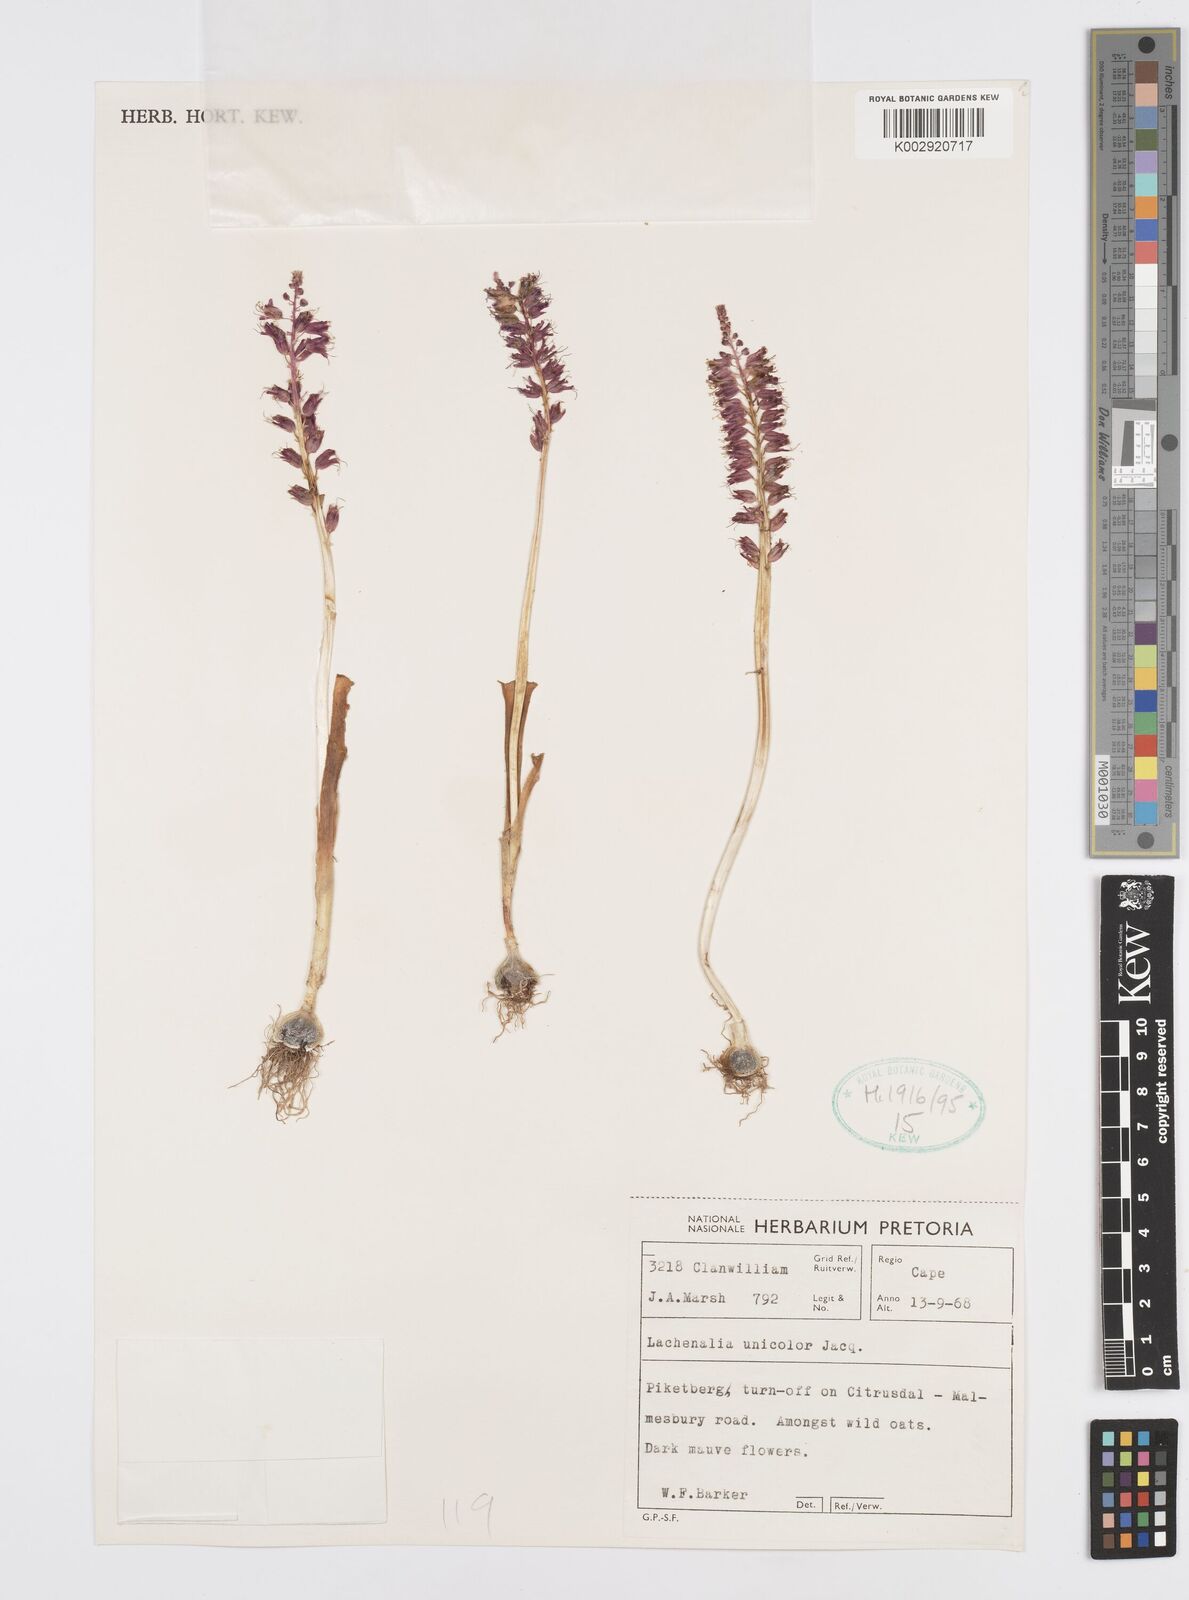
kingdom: Plantae
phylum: Tracheophyta
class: Liliopsida
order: Asparagales
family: Asparagaceae
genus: Lachenalia
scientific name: Lachenalia pallida
